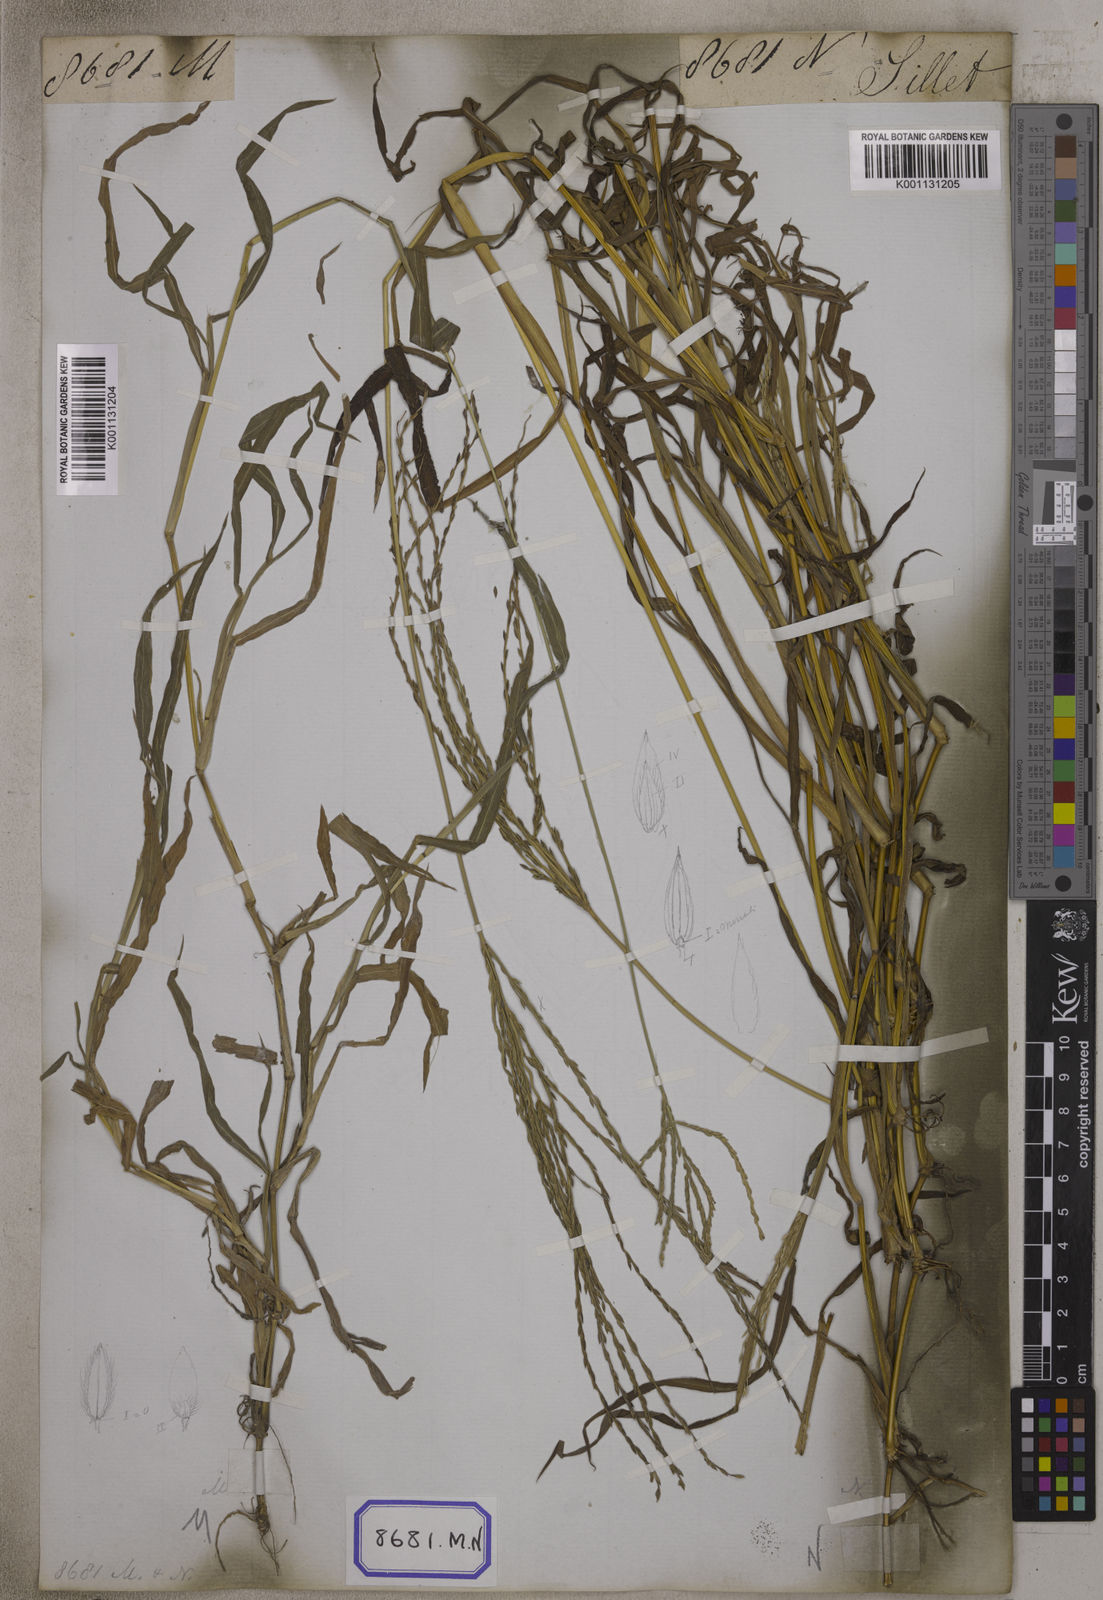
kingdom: Plantae
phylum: Tracheophyta
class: Liliopsida
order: Poales
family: Poaceae
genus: Digitaria
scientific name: Digitaria sanguinalis
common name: Hairy crabgrass
